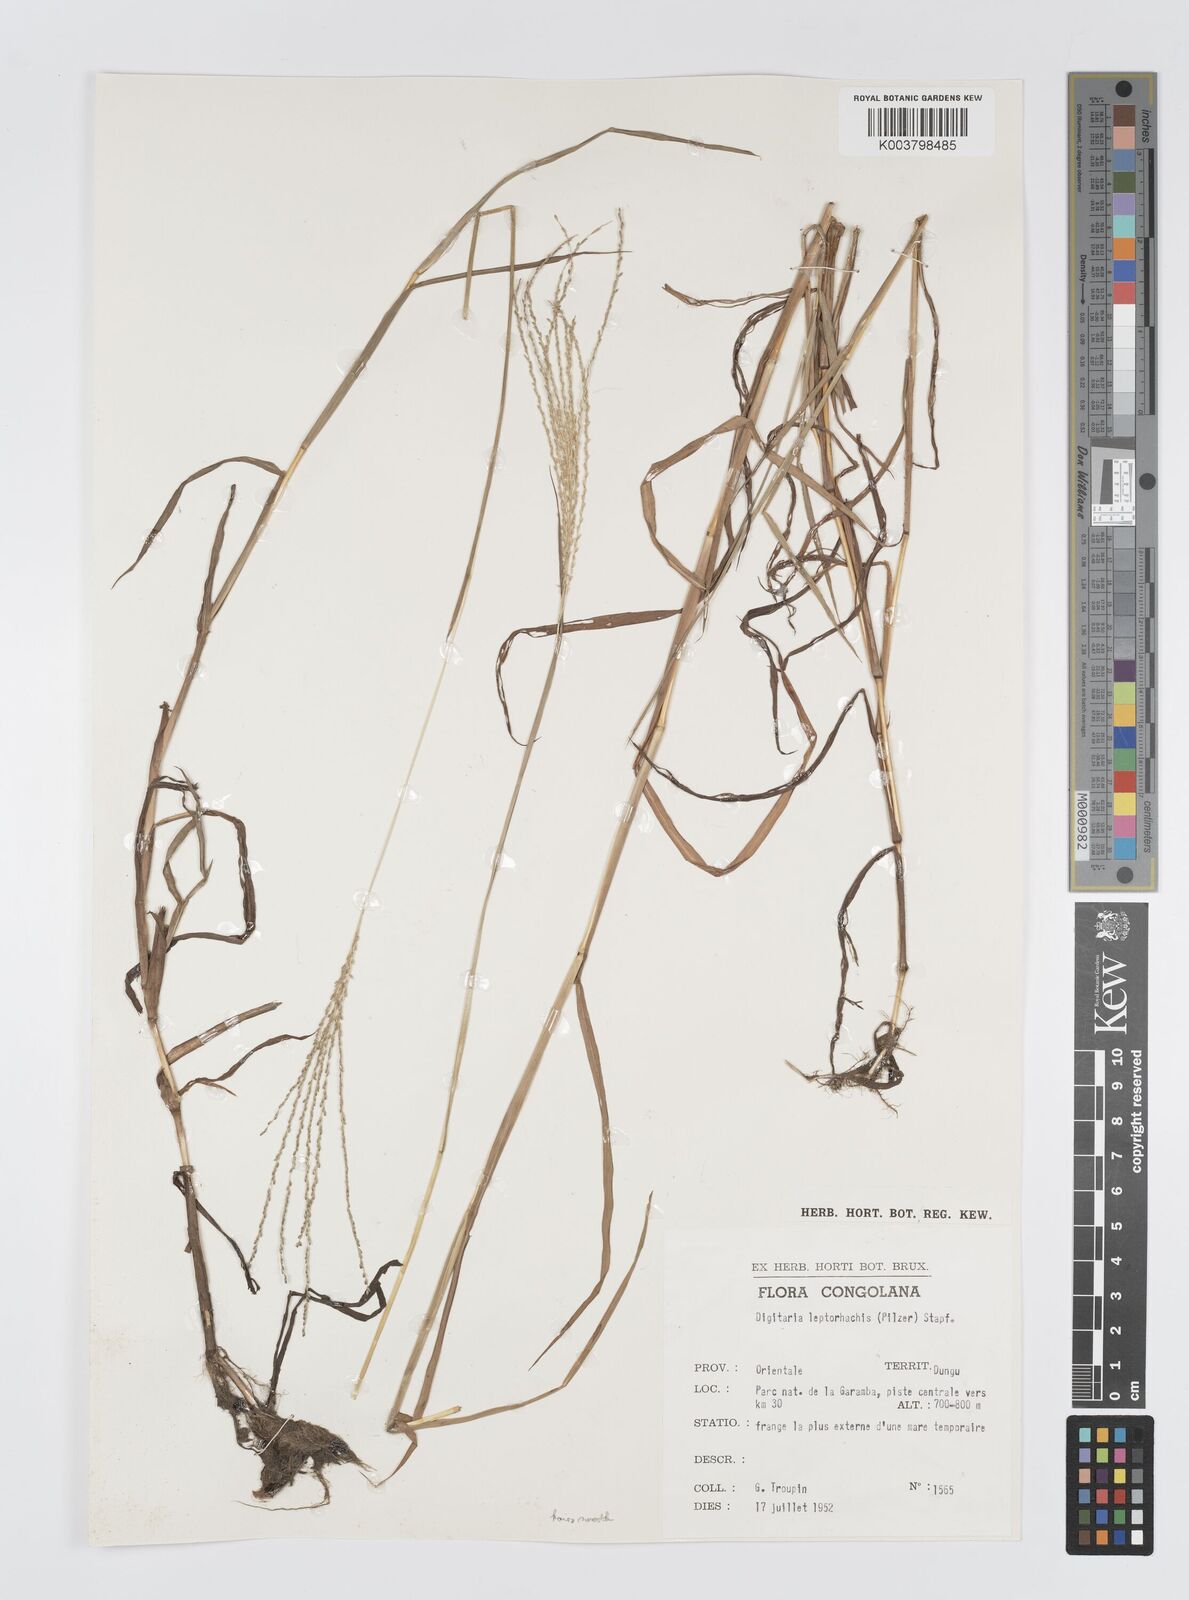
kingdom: Plantae
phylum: Tracheophyta
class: Liliopsida
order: Poales
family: Poaceae
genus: Digitaria
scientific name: Digitaria leptorhachis
